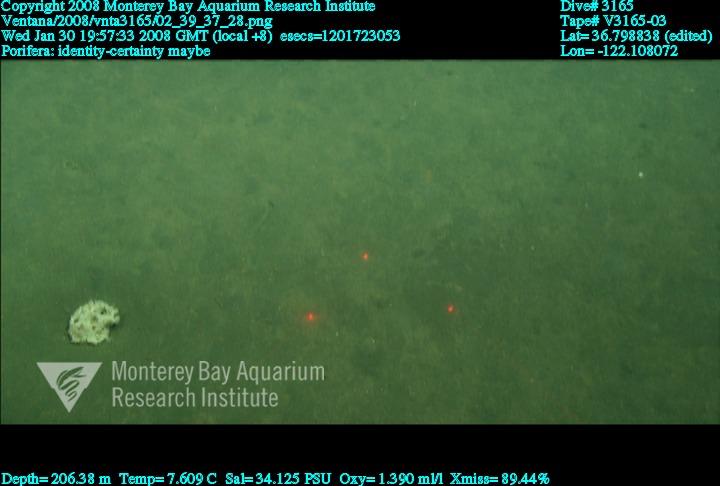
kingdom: Animalia
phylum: Porifera
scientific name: Porifera
